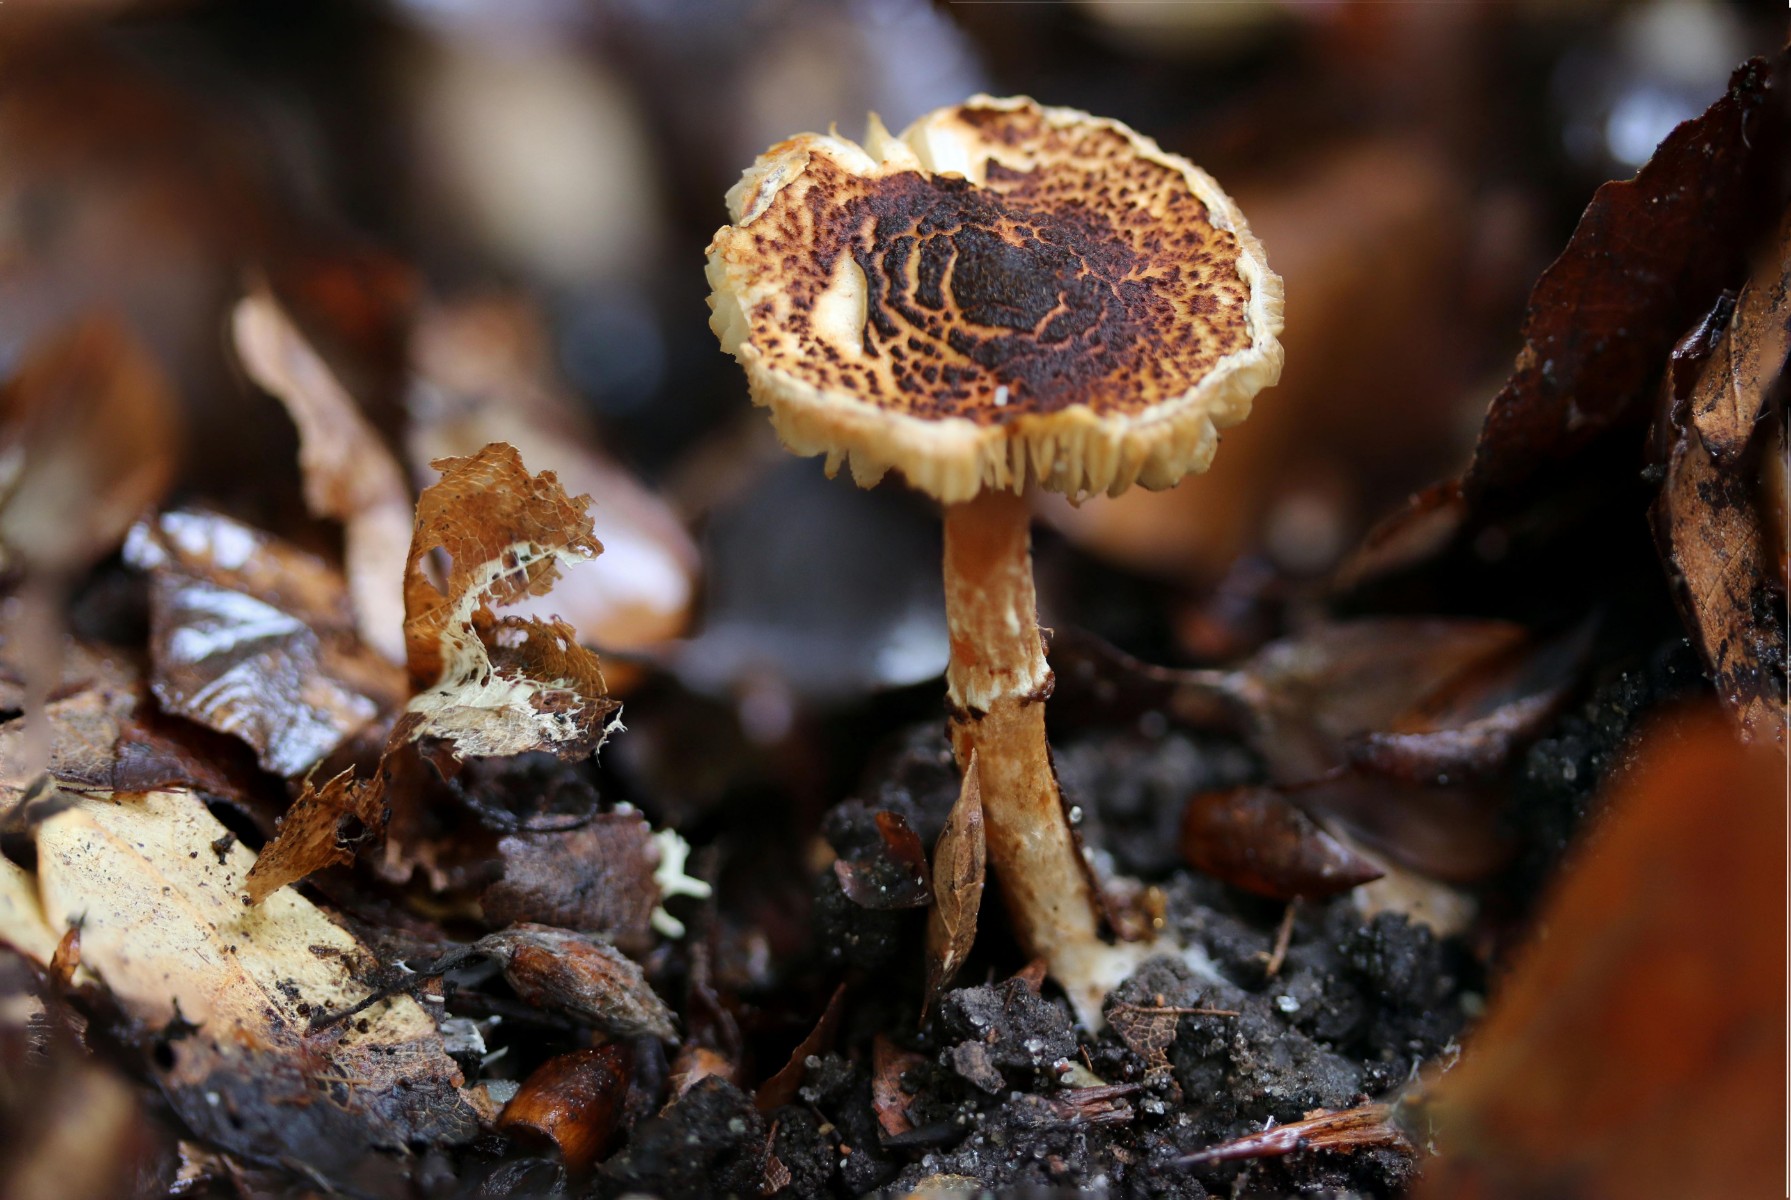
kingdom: Fungi
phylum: Basidiomycota
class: Agaricomycetes
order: Agaricales
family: Agaricaceae
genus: Lepiota
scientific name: Lepiota castanea
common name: kastaniebrun parasolhat
